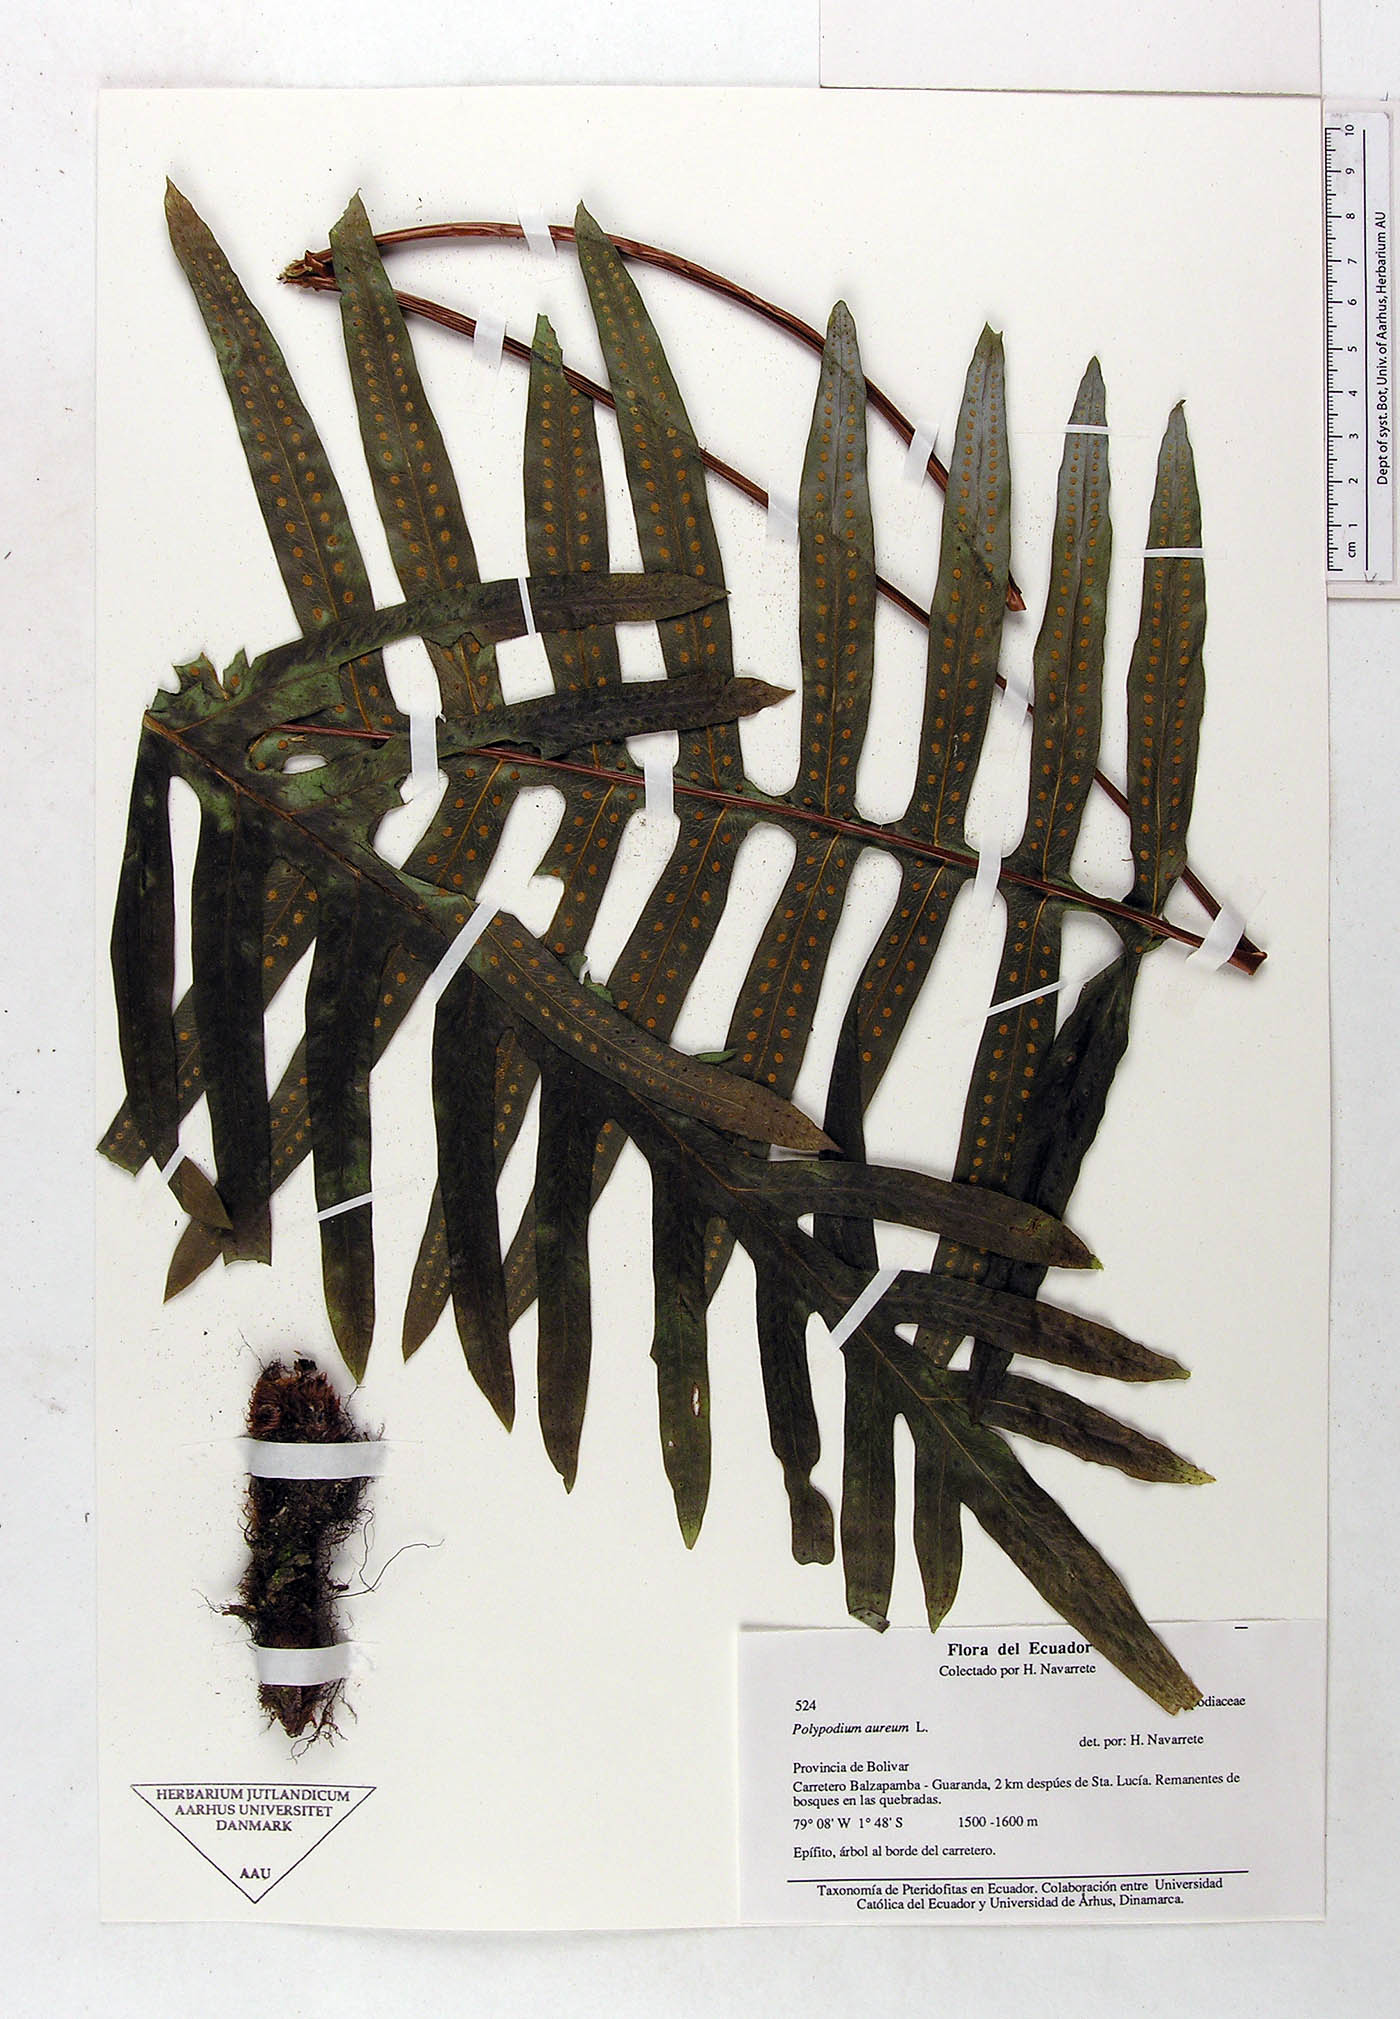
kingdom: Plantae
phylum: Tracheophyta
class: Polypodiopsida
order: Polypodiales
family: Polypodiaceae
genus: Phlebodium
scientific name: Phlebodium aureum
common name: Gold-foot fern
